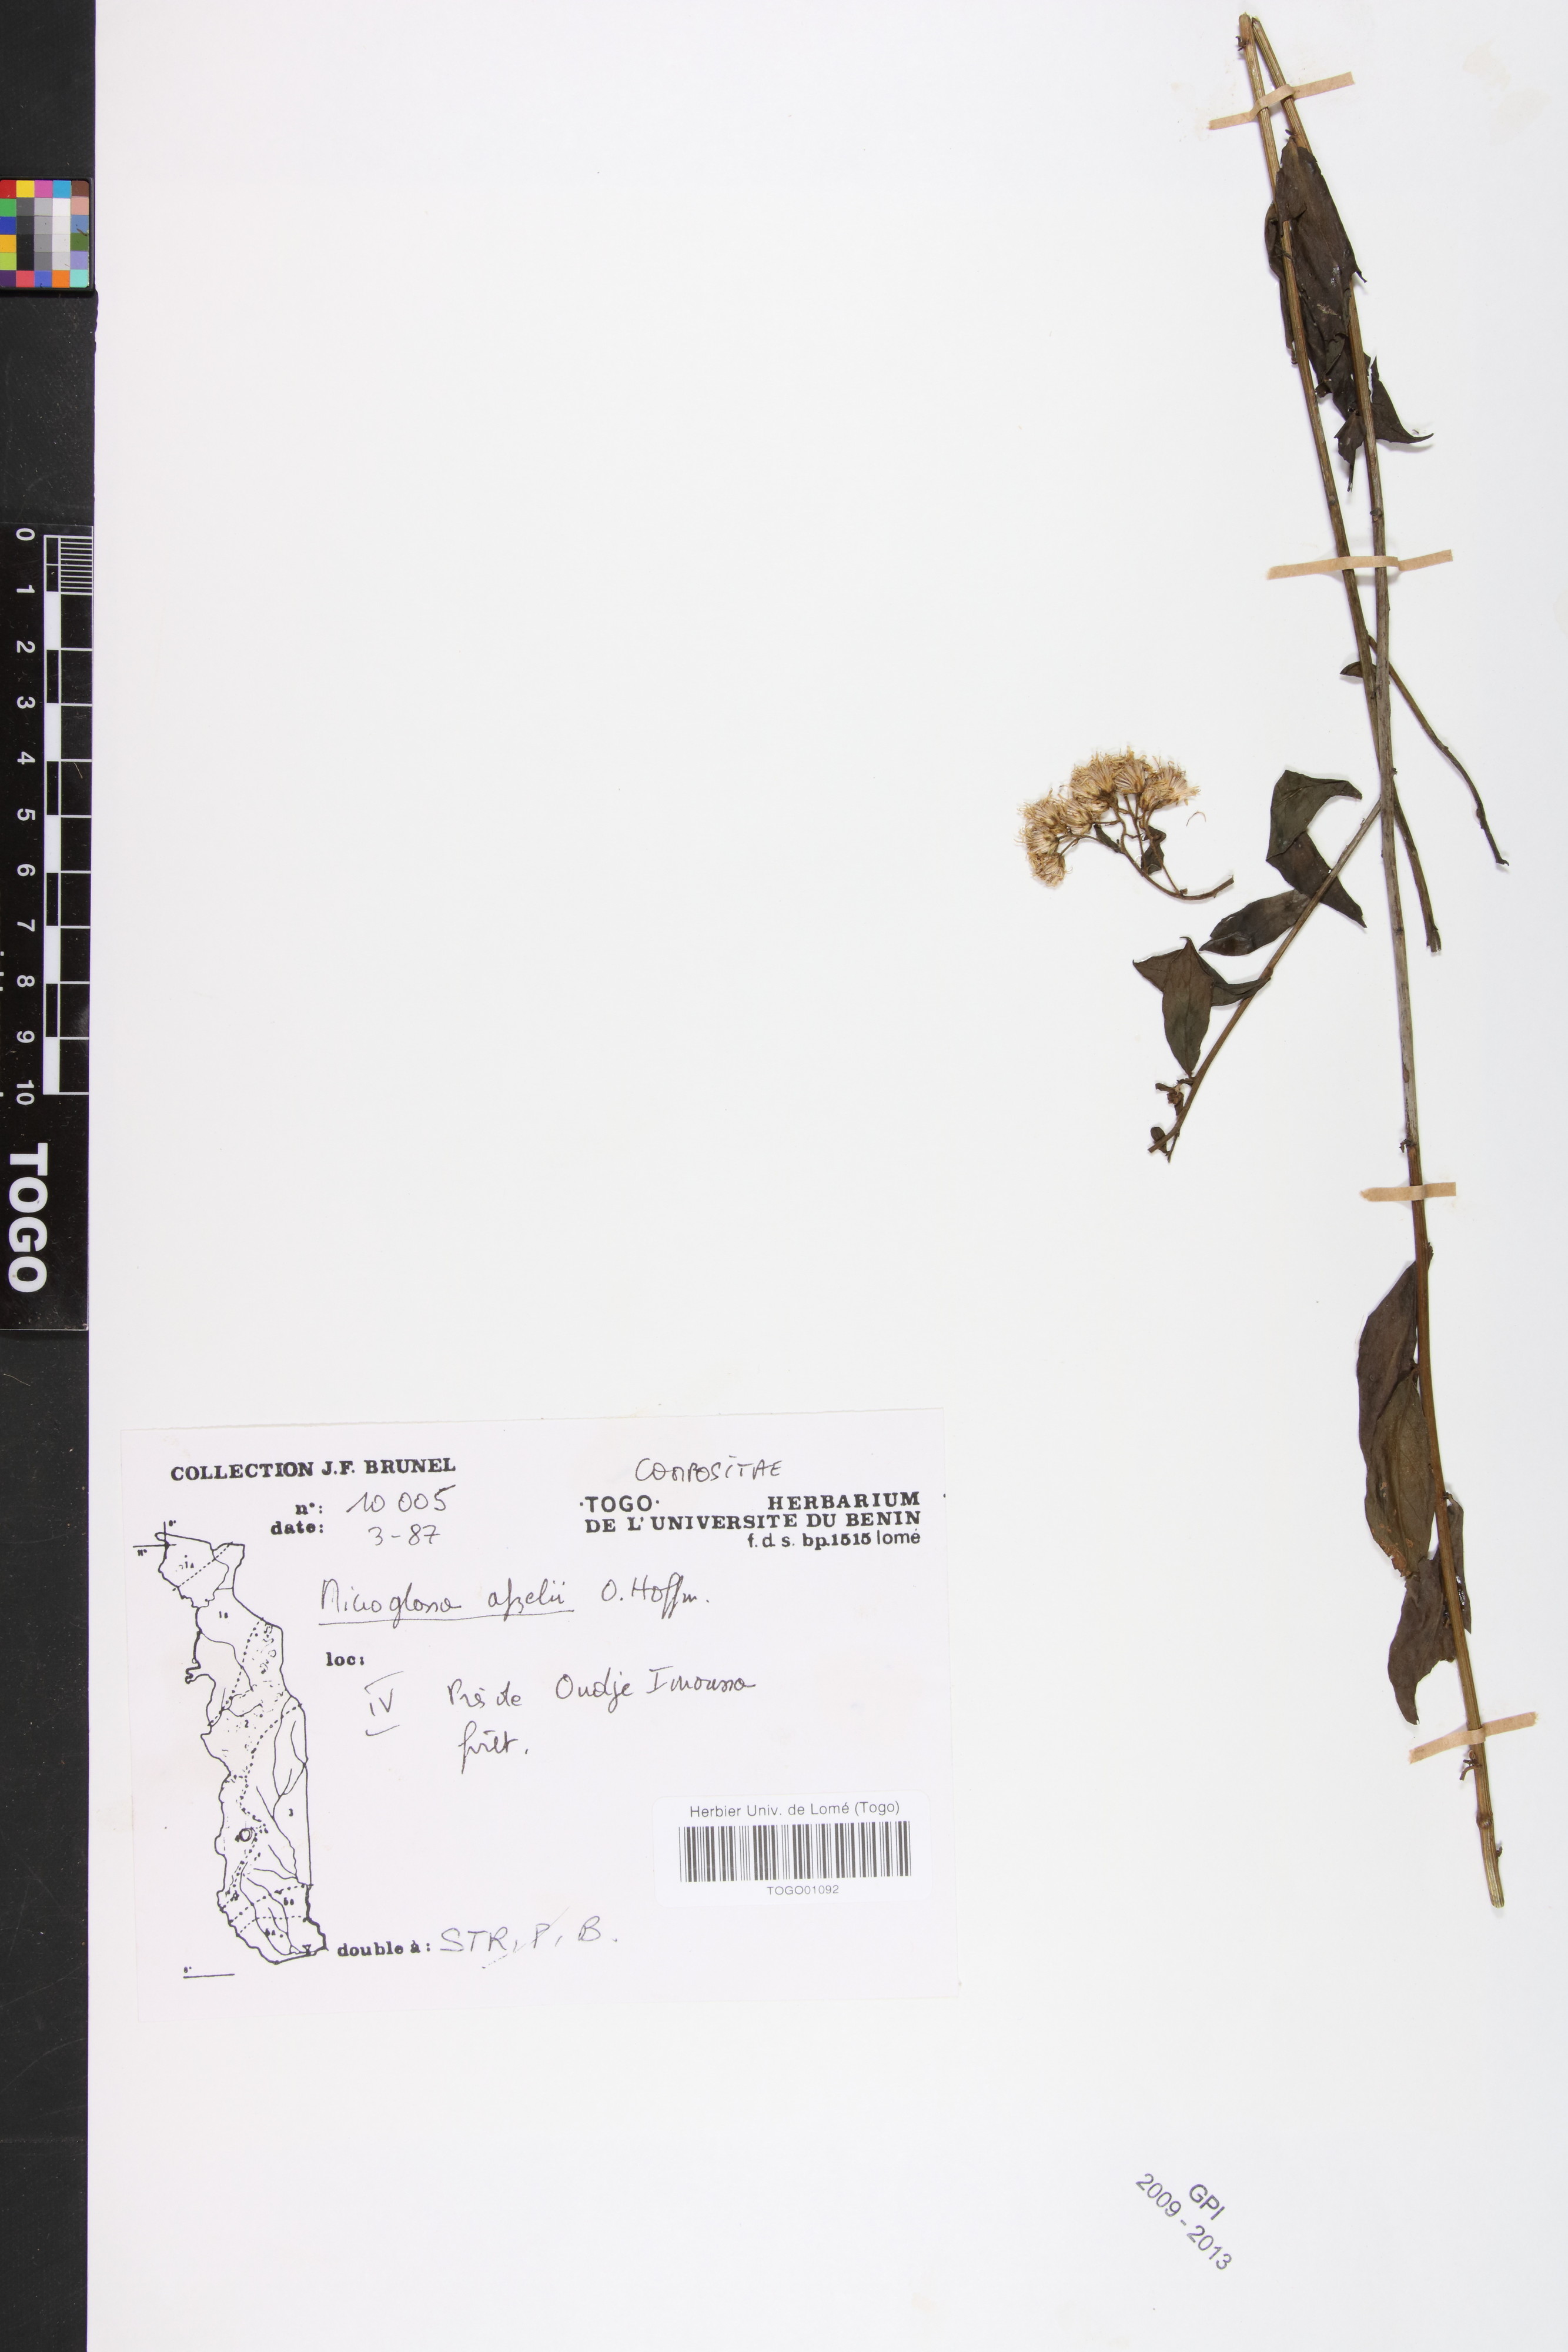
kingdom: Plantae
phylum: Tracheophyta
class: Magnoliopsida
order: Asterales
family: Asteraceae
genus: Microglossa
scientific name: Microglossa afzelii
